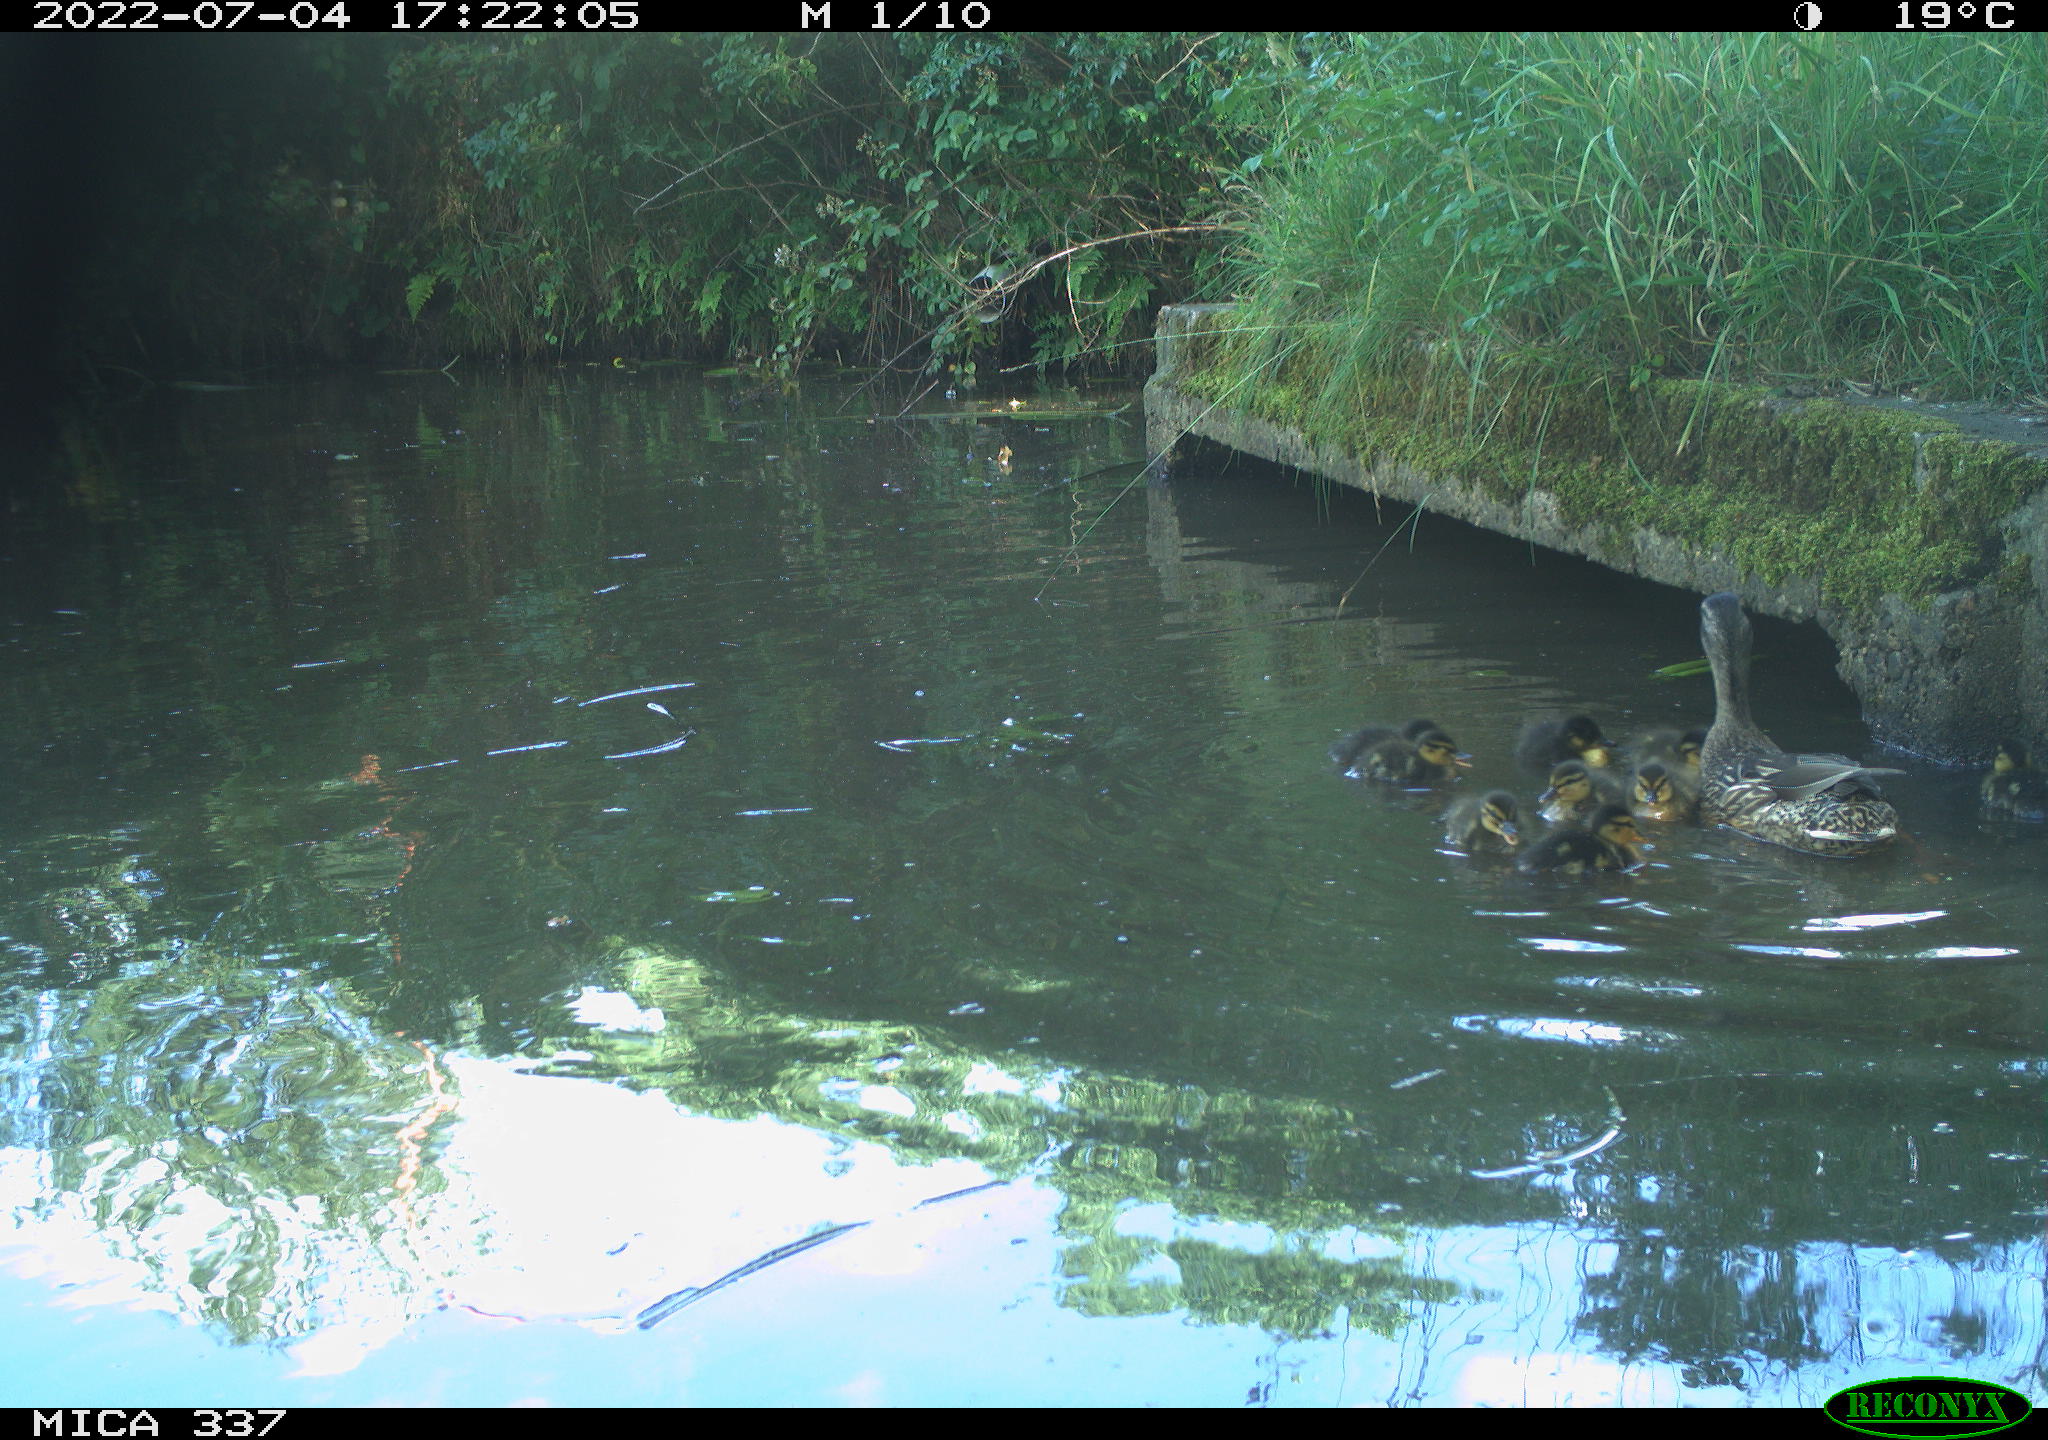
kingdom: Animalia
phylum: Chordata
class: Aves
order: Anseriformes
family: Anatidae
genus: Anas
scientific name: Anas platyrhynchos
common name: Mallard
